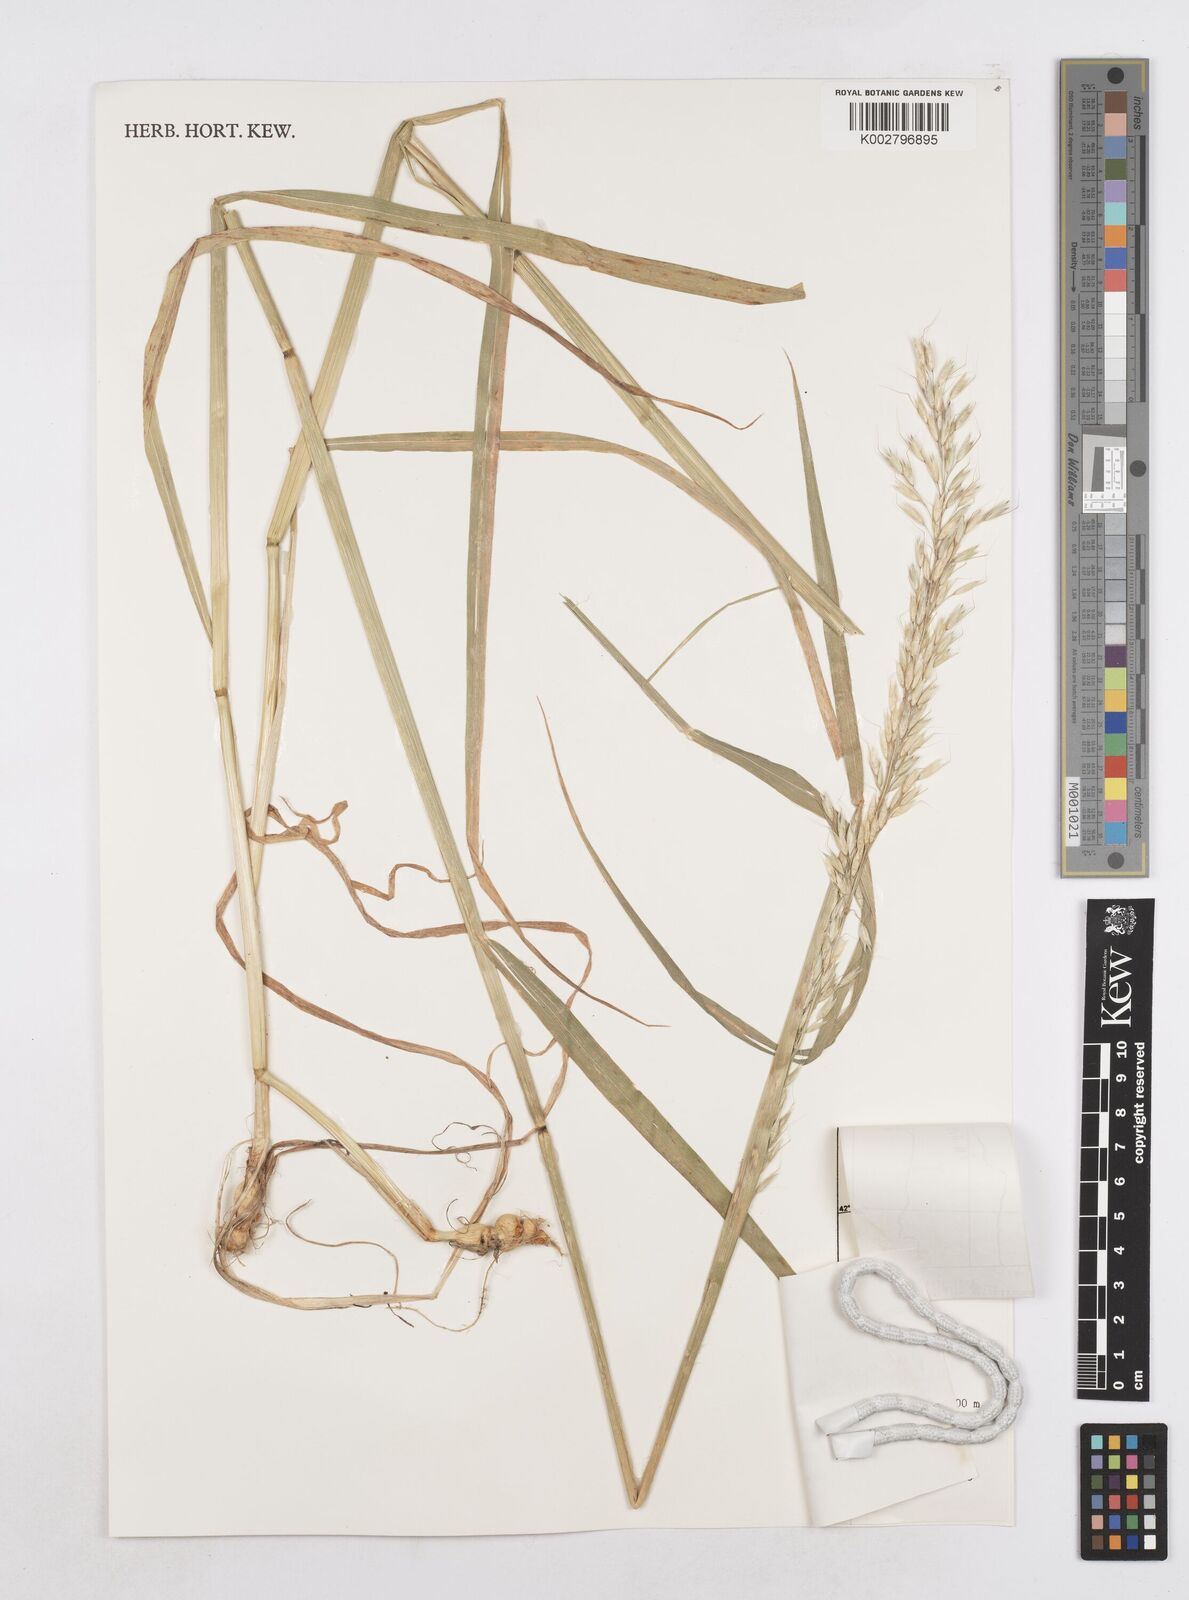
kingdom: Plantae
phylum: Tracheophyta
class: Liliopsida
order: Poales
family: Poaceae
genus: Arrhenatherum
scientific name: Arrhenatherum elatius
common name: Tall oatgrass
